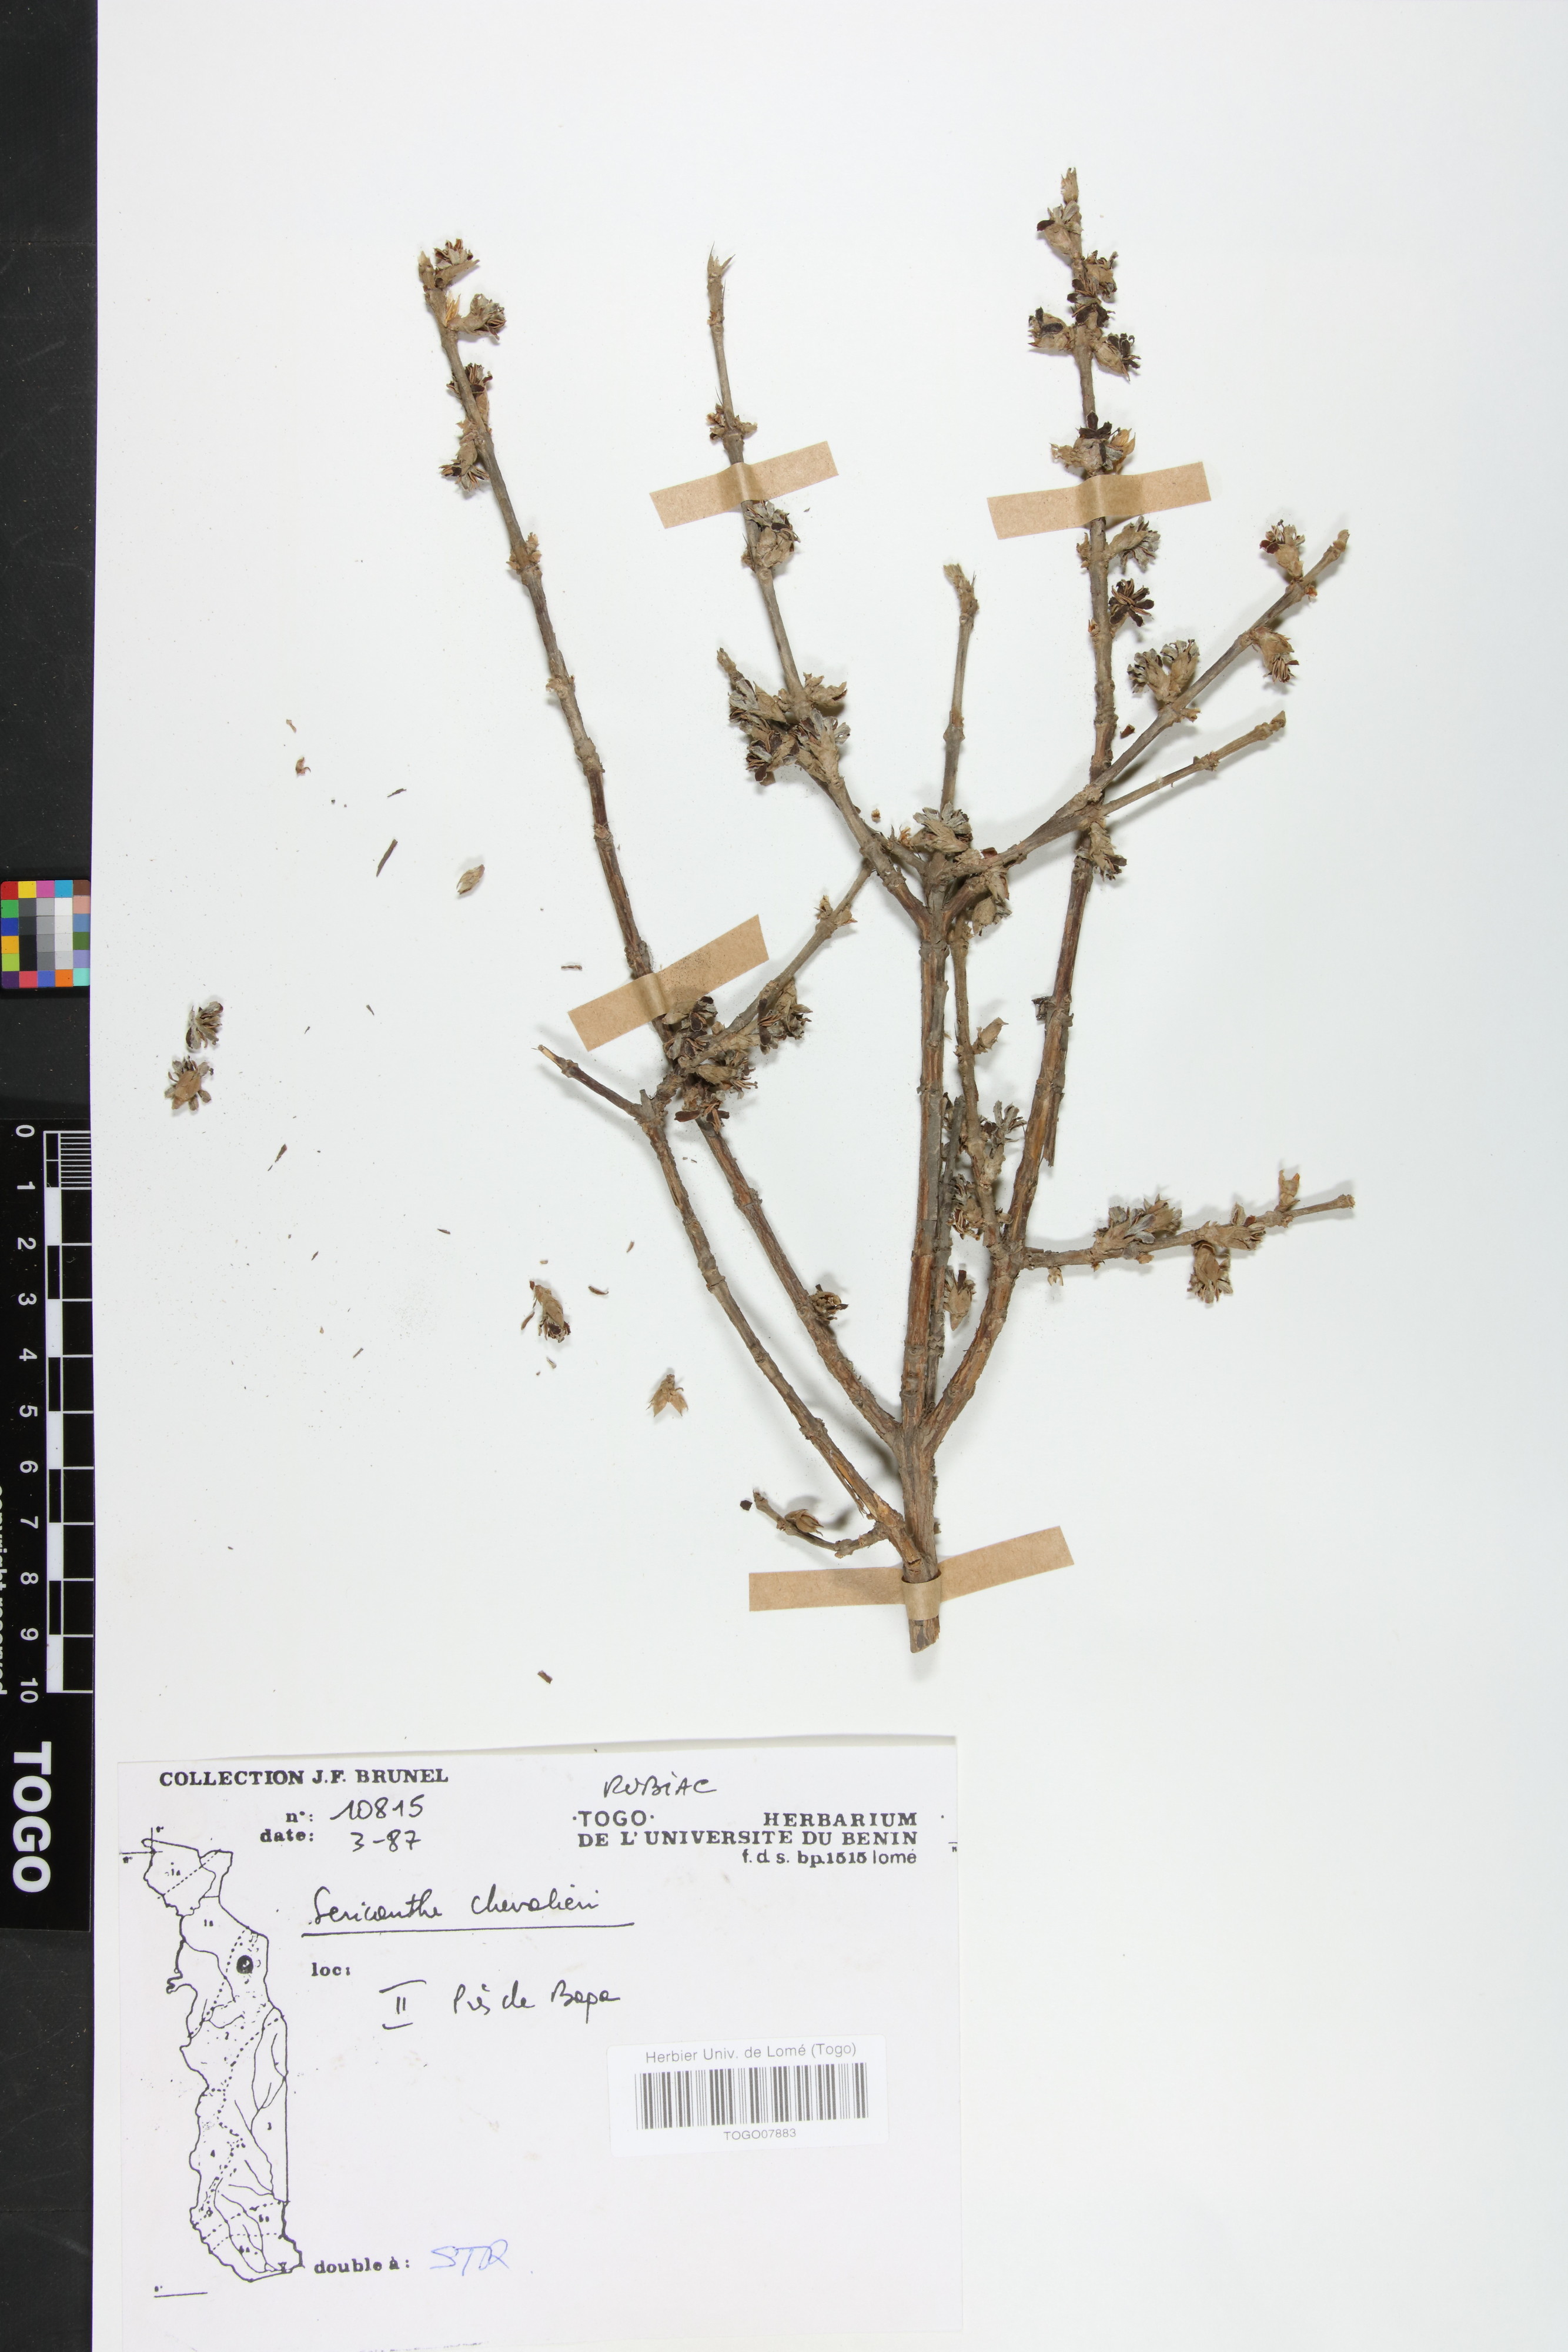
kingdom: Plantae
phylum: Tracheophyta
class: Magnoliopsida
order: Gentianales
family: Rubiaceae
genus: Sericanthe
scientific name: Sericanthe chevalieri
